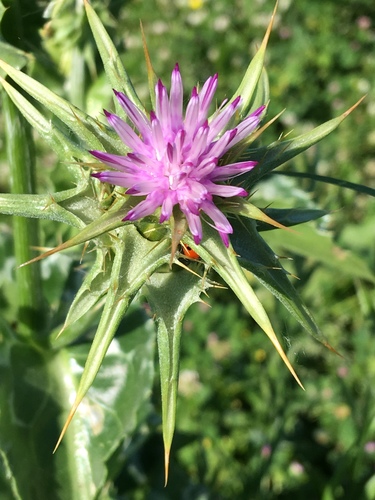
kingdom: Plantae
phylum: Tracheophyta
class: Magnoliopsida
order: Asterales
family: Asteraceae
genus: Silybum
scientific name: Silybum marianum
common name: Milk thistle
